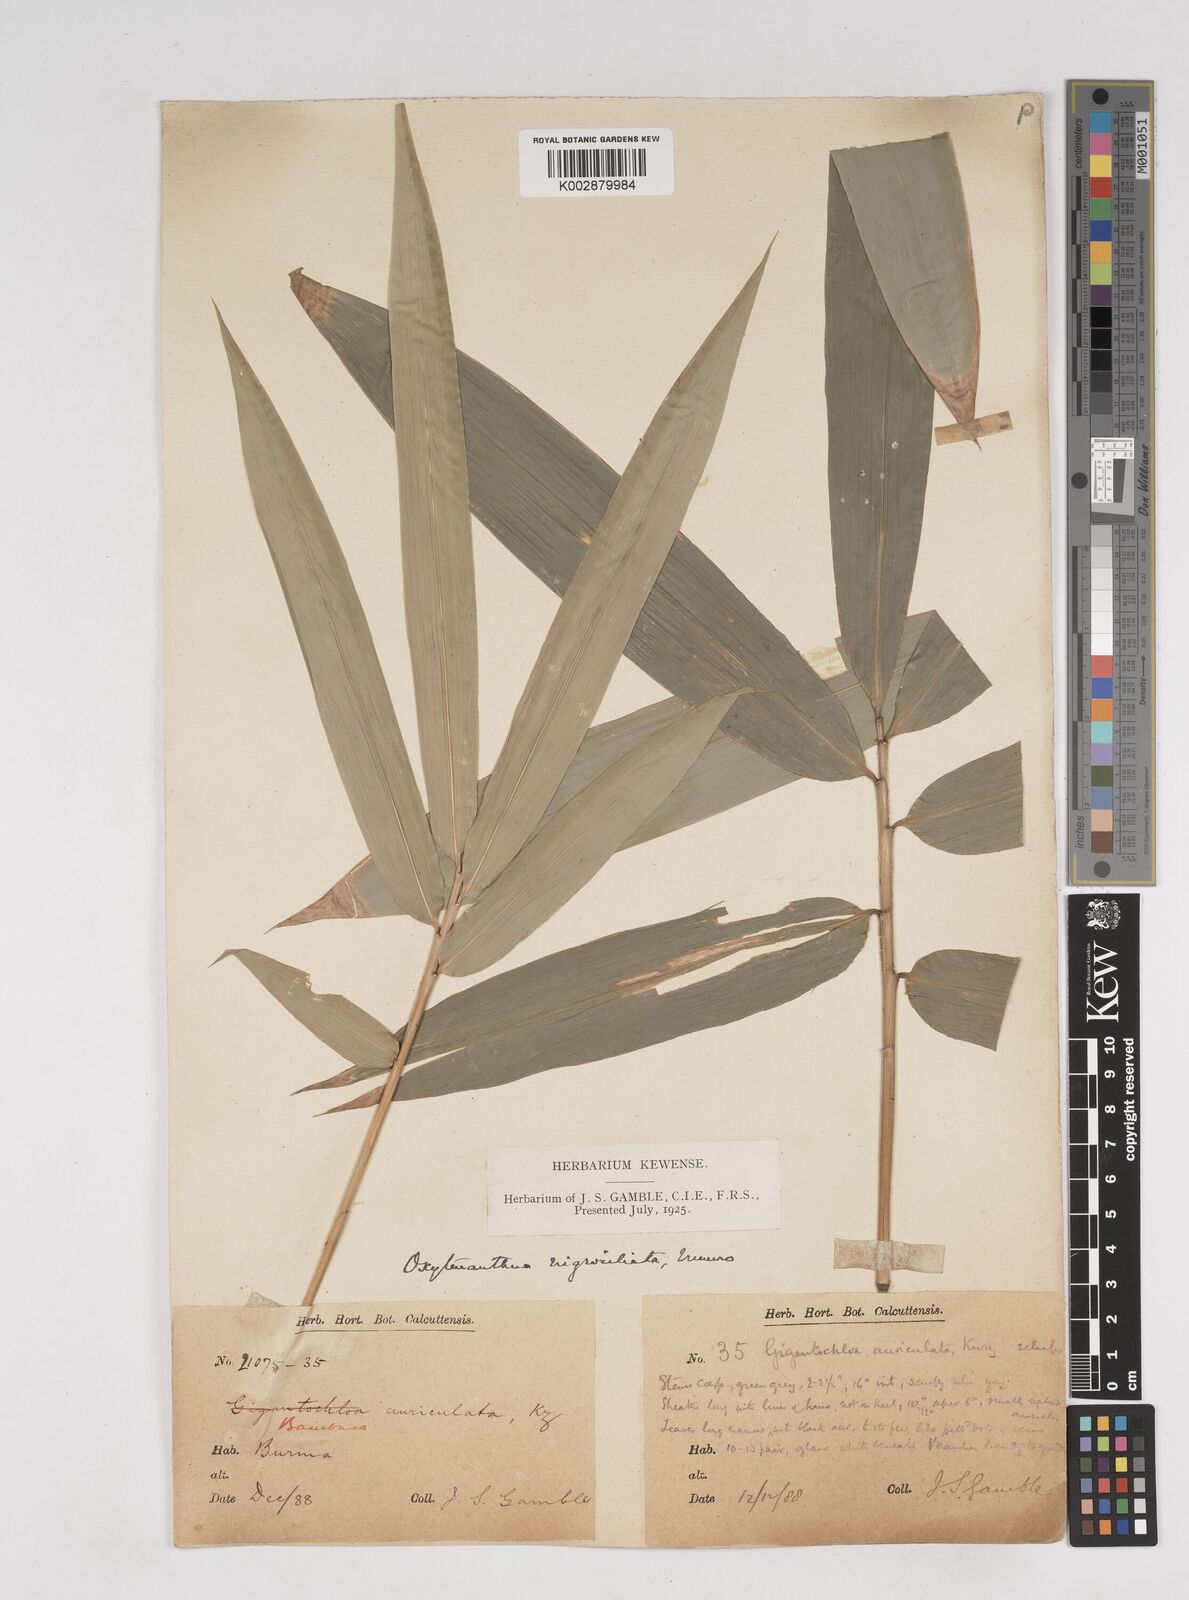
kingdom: Plantae
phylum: Tracheophyta
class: Liliopsida
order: Poales
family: Poaceae
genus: Gigantochloa
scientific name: Gigantochloa nigrociliata
